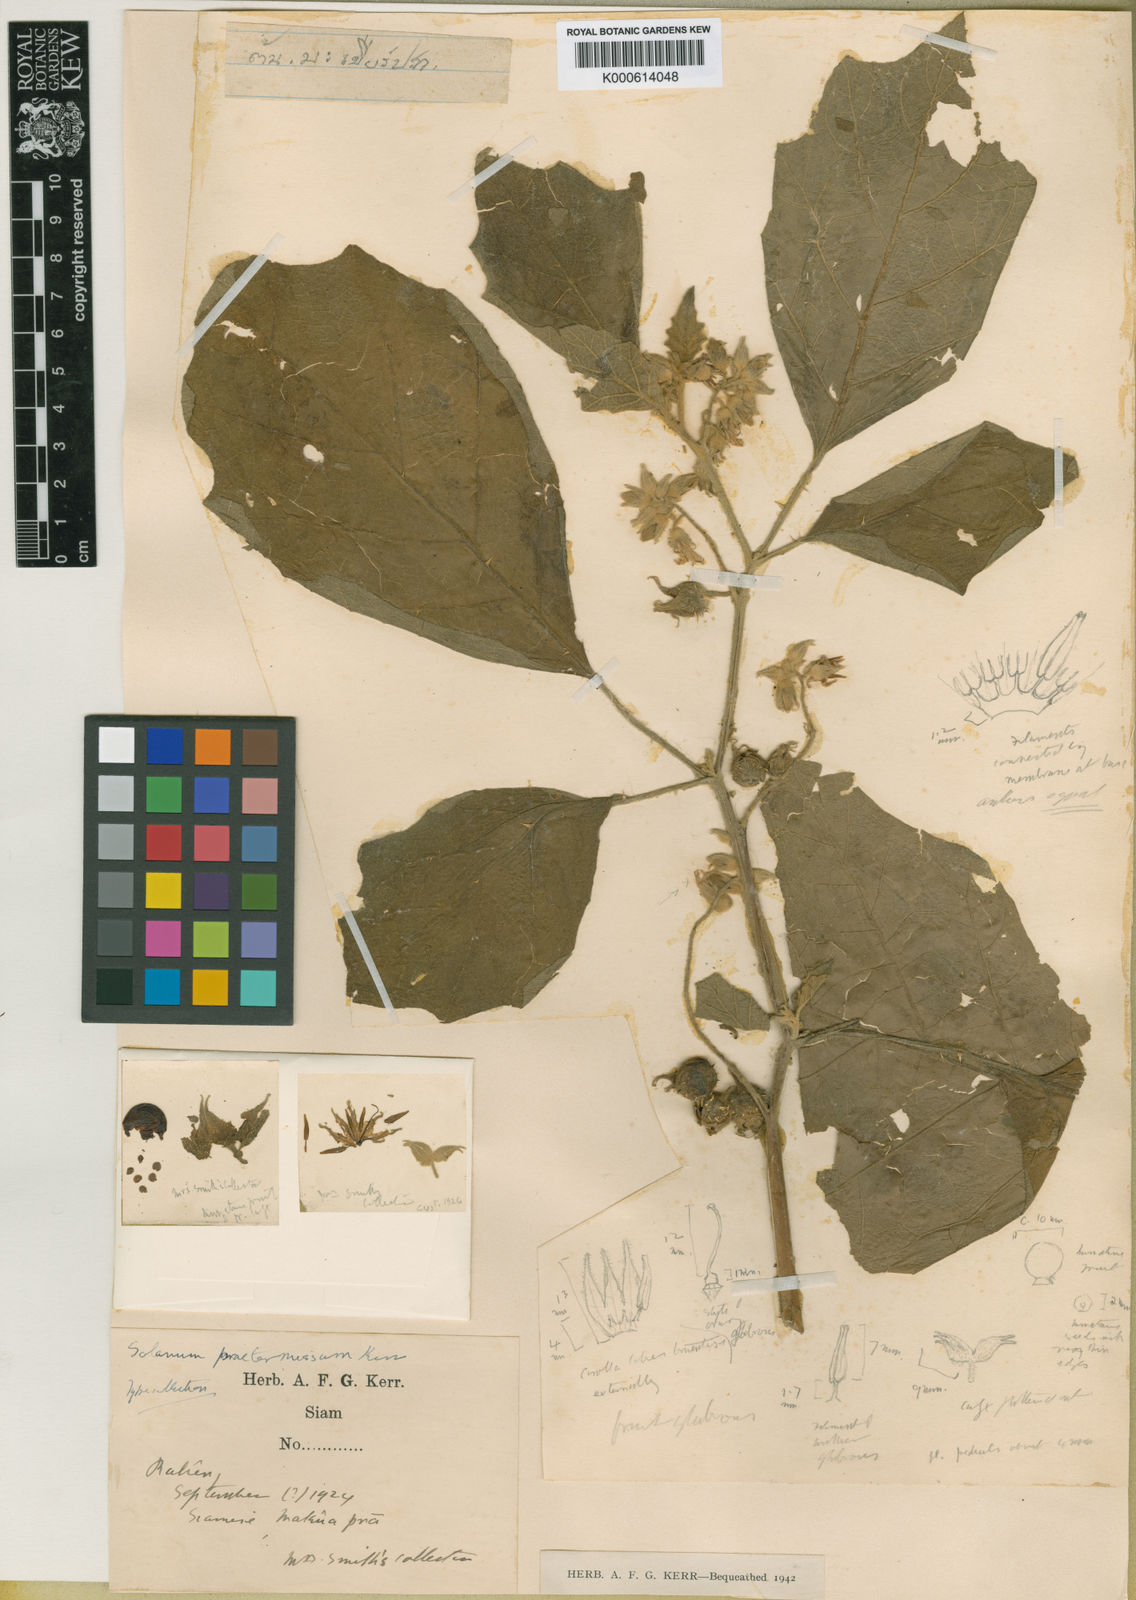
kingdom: Plantae
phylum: Tracheophyta
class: Magnoliopsida
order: Solanales
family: Solanaceae
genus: Solanum
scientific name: Solanum praetermissum
